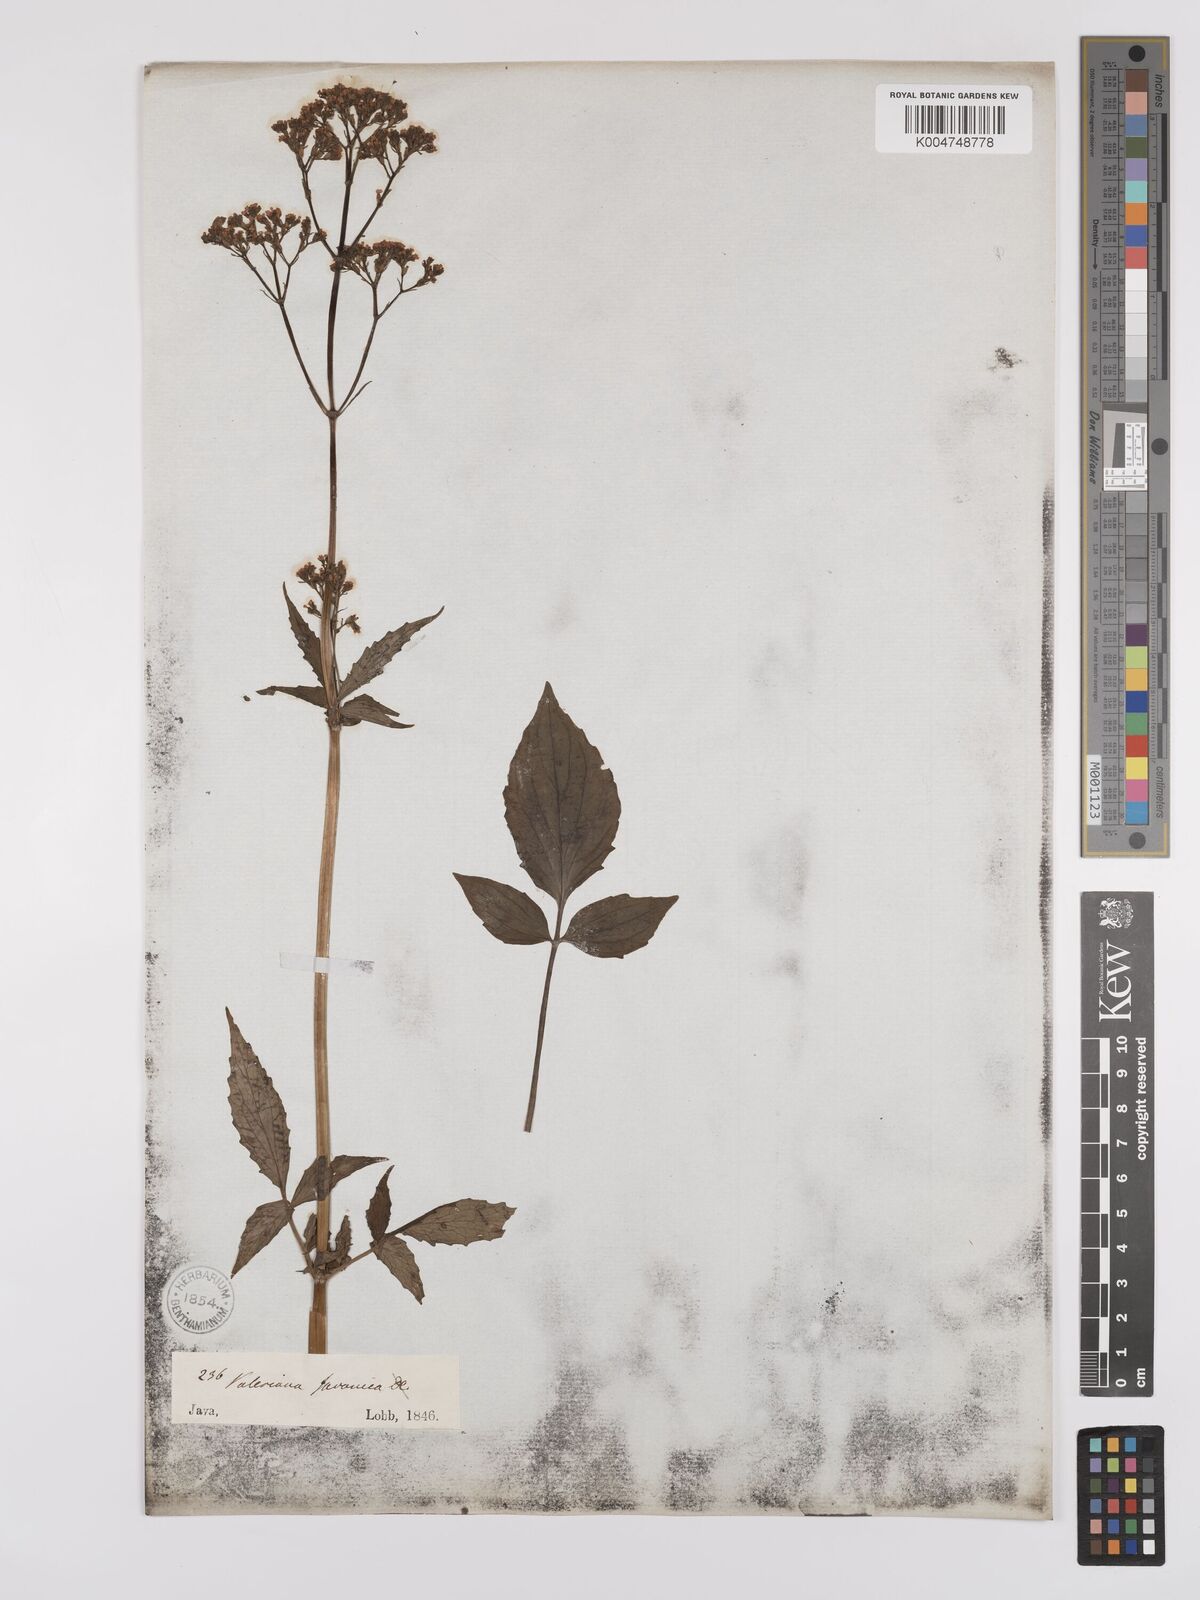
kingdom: Plantae
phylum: Tracheophyta
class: Magnoliopsida
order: Dipsacales
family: Caprifoliaceae
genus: Valeriana
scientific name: Valeriana hardwickei
